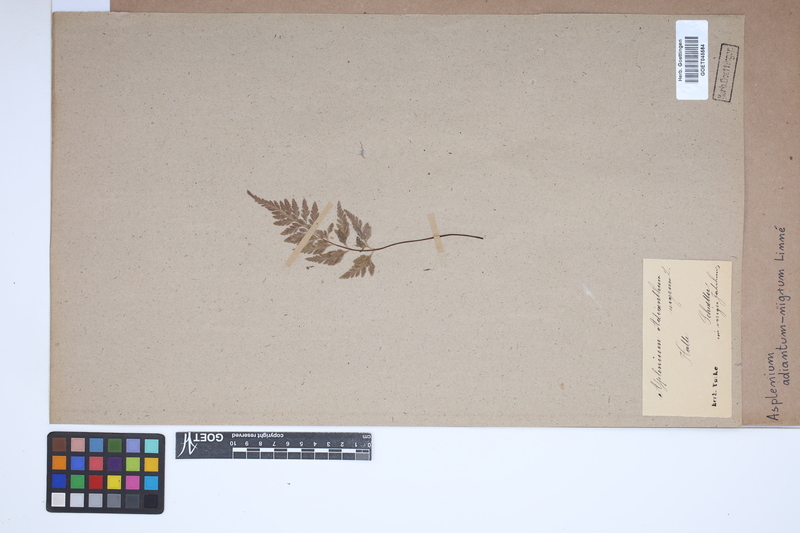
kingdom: Plantae
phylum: Tracheophyta
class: Polypodiopsida
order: Polypodiales
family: Aspleniaceae
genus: Asplenium
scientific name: Asplenium adiantum-nigrum
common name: Black spleenwort
